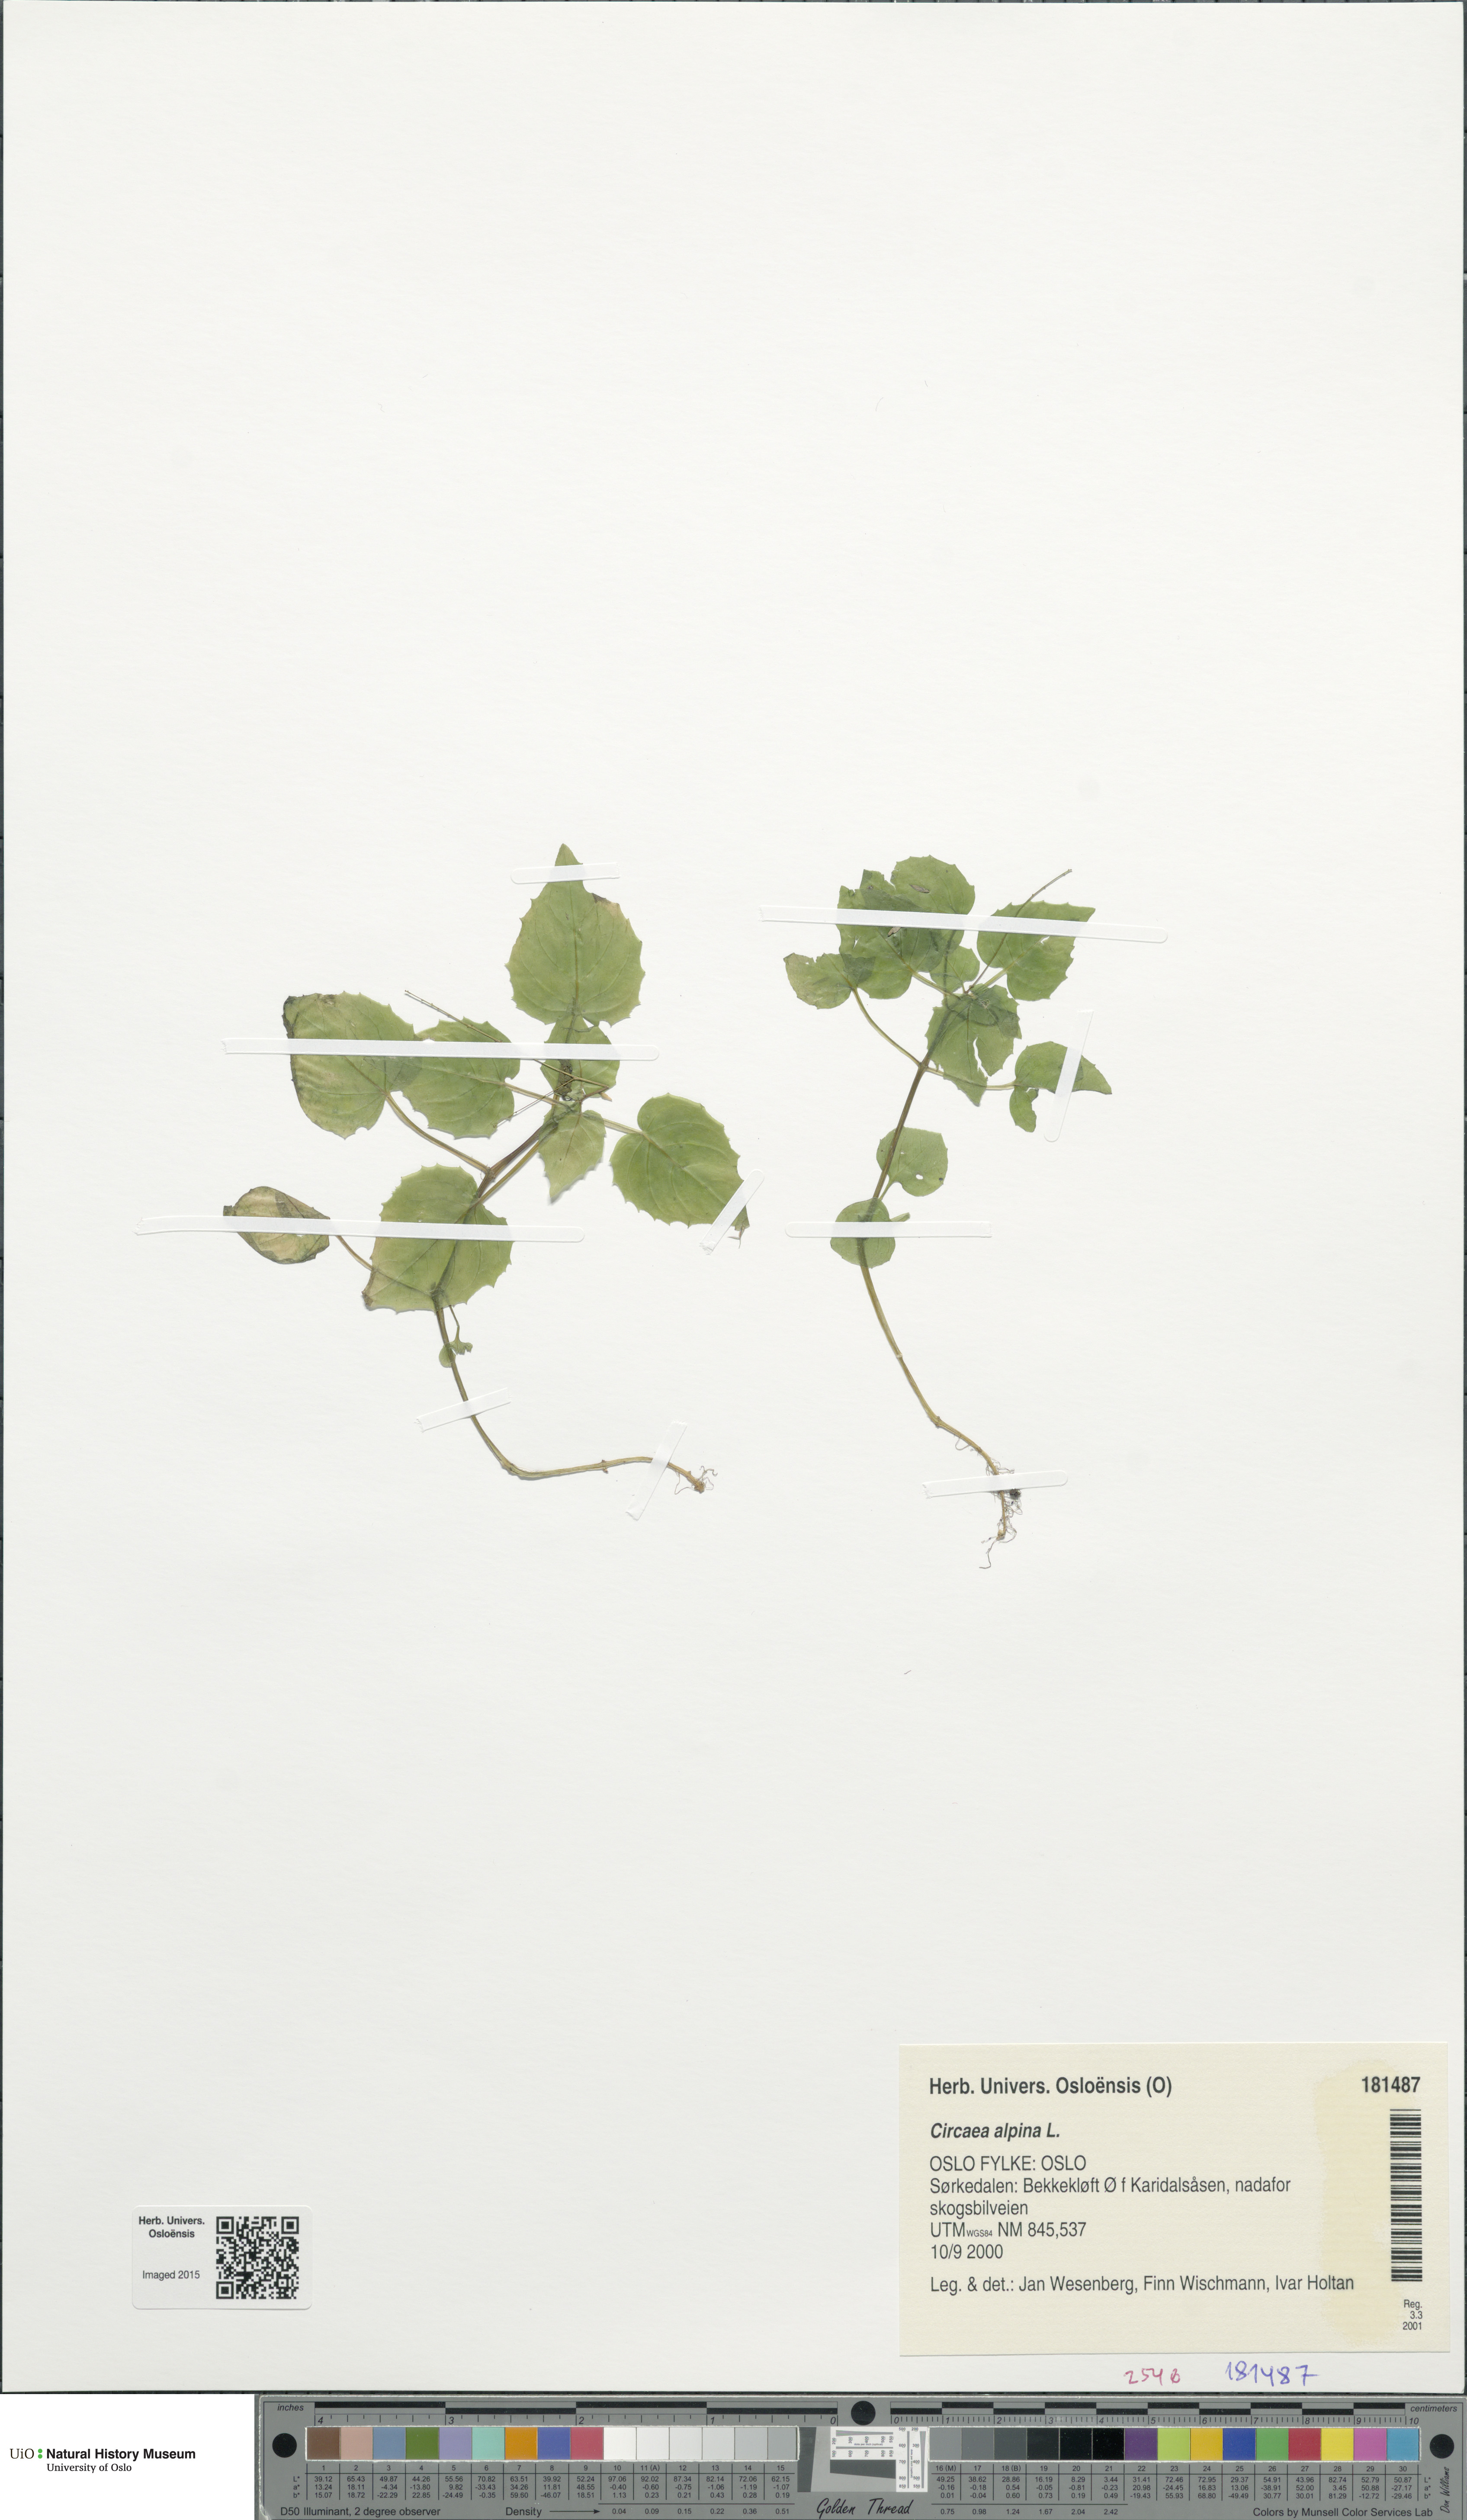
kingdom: Plantae
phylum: Tracheophyta
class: Magnoliopsida
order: Myrtales
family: Onagraceae
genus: Circaea
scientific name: Circaea alpina
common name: Alpine enchanter's-nightshade
